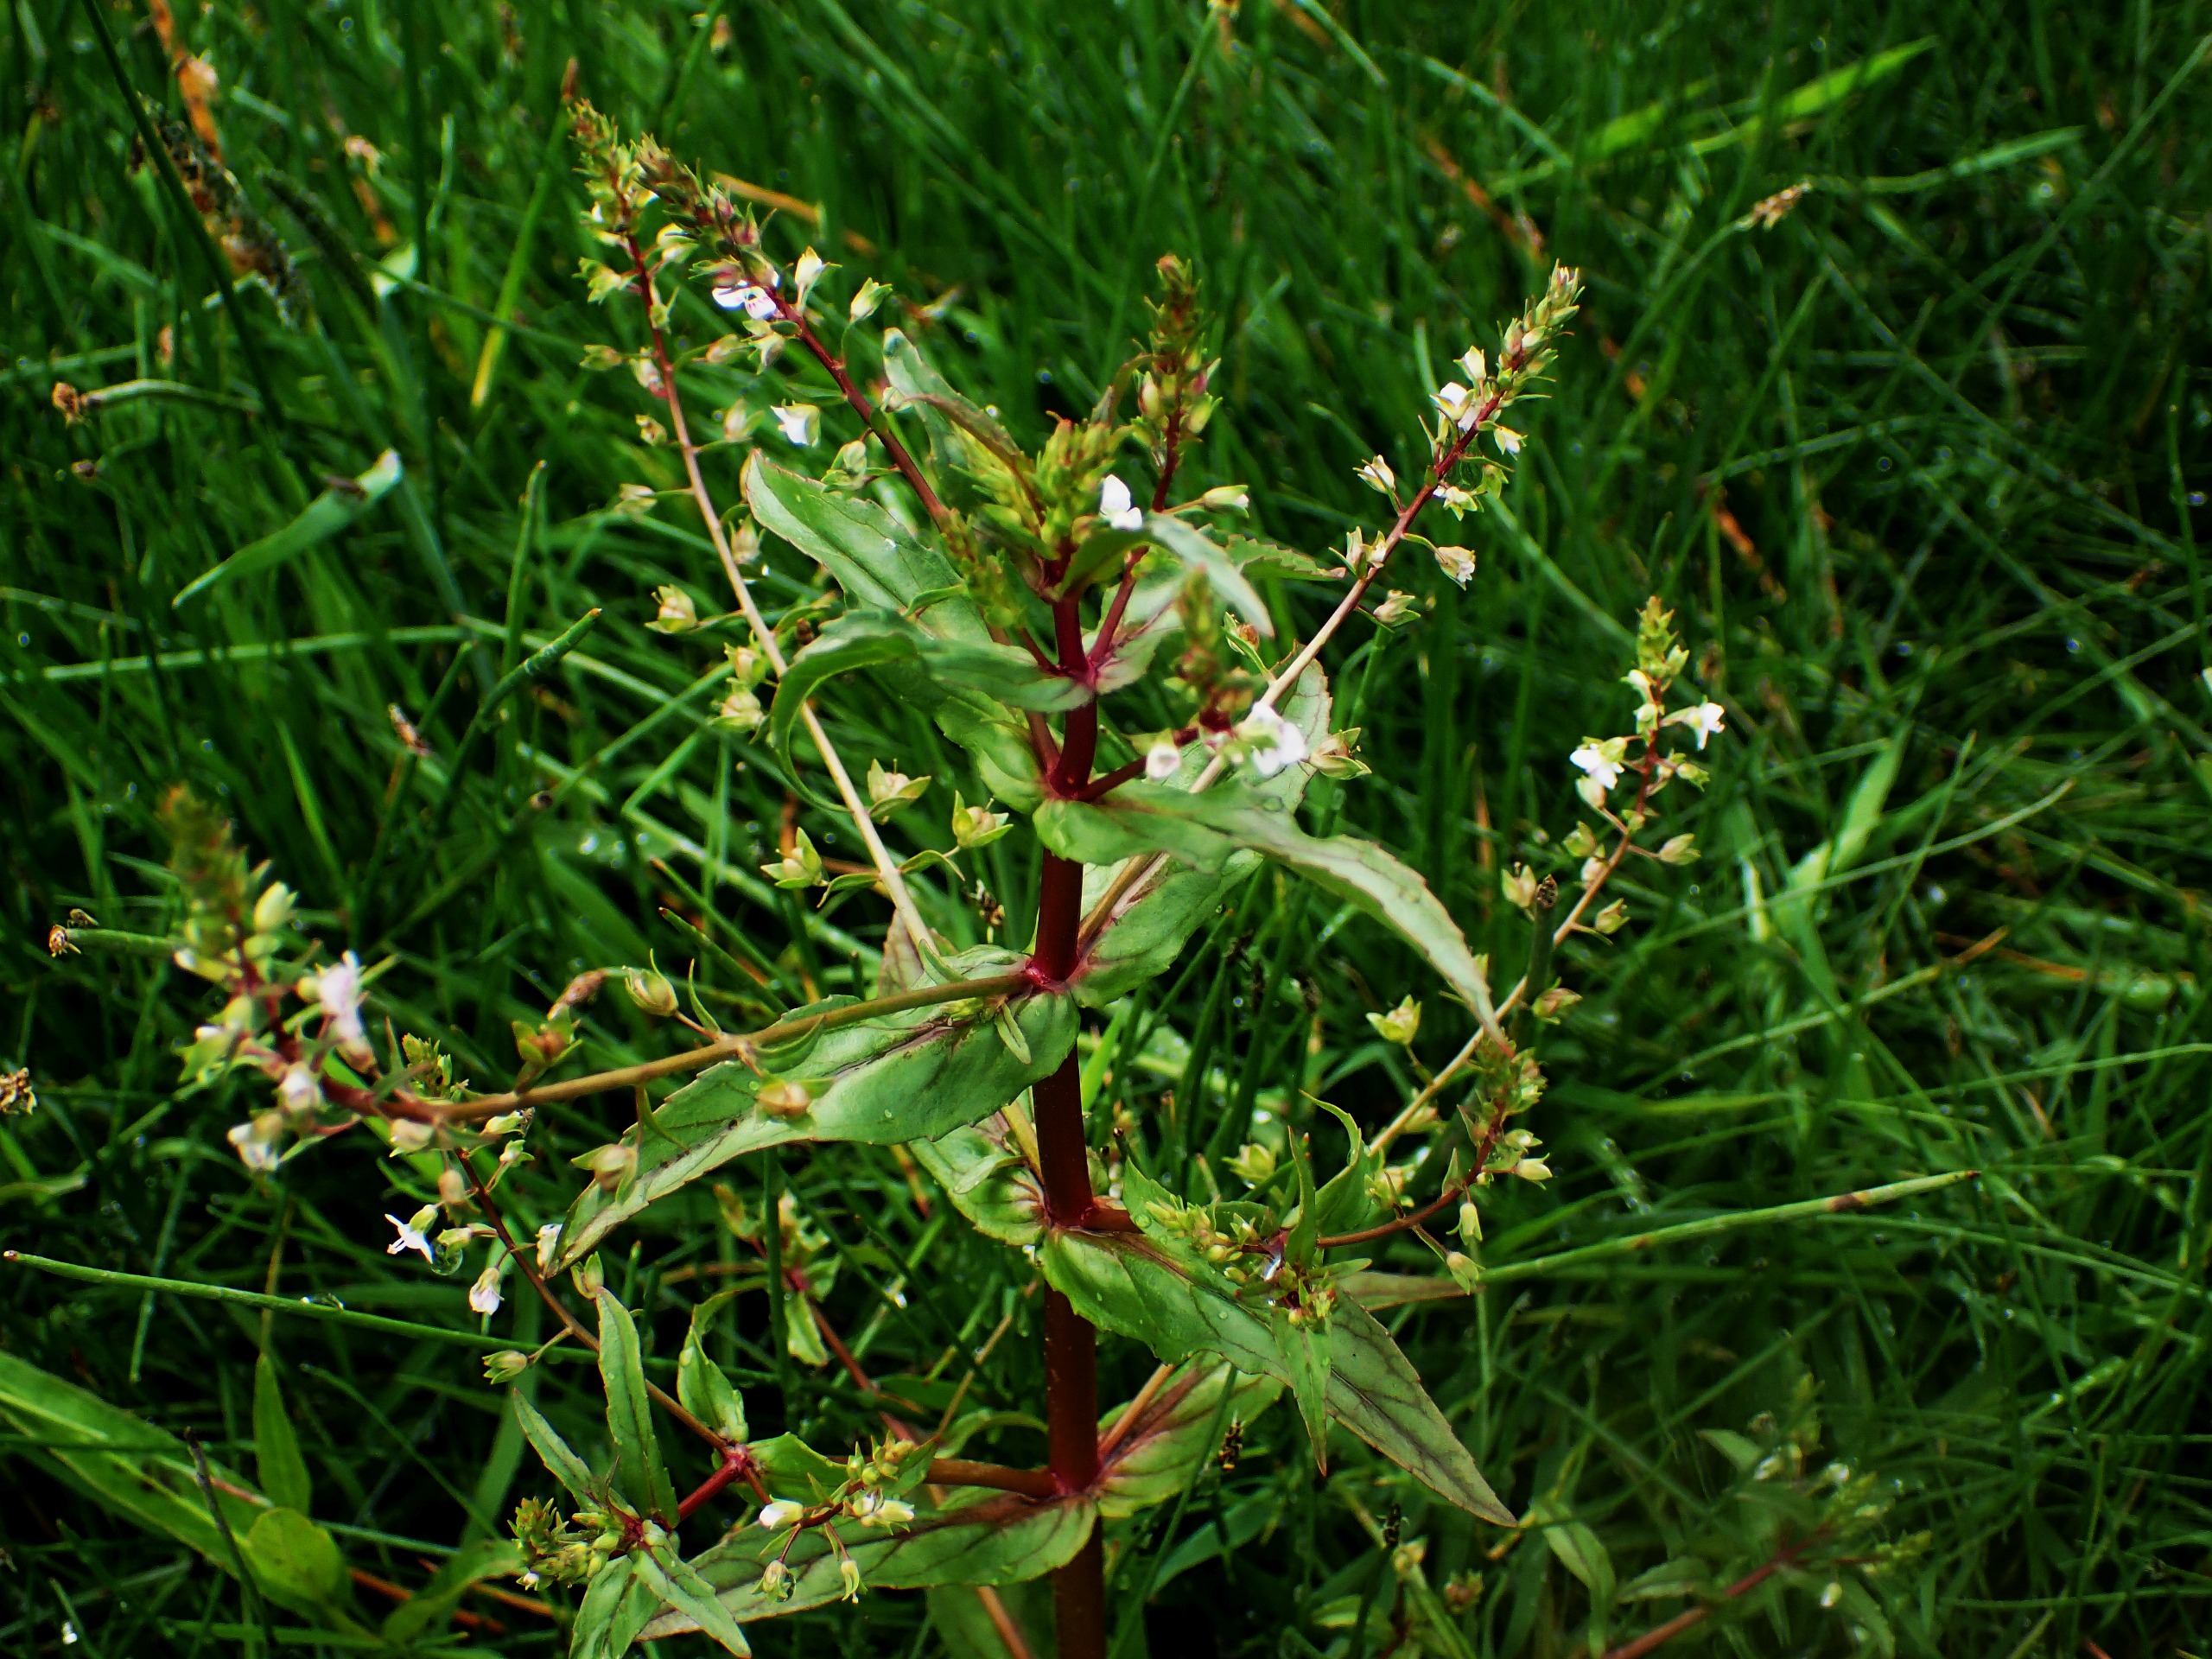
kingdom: Plantae
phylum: Tracheophyta
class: Magnoliopsida
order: Lamiales
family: Plantaginaceae
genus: Veronica
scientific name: Veronica catenata
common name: Vand-ærenpris
